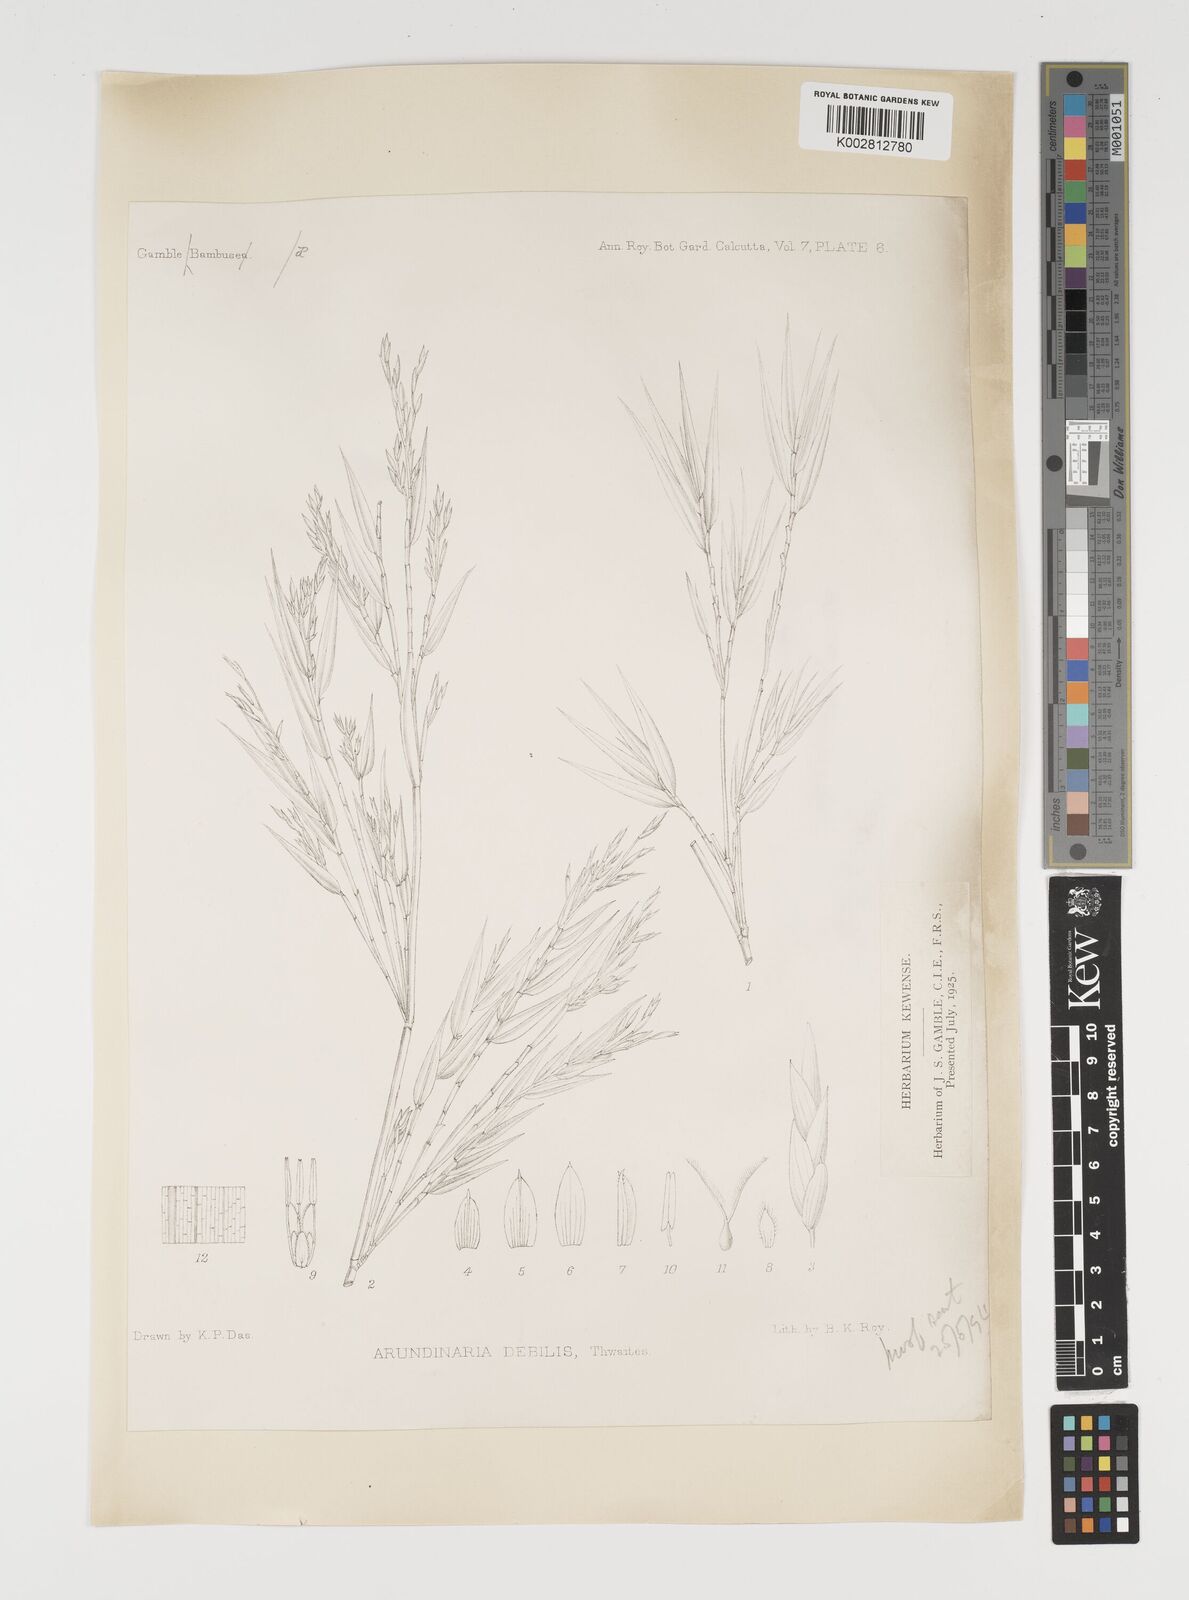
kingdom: Plantae
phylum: Tracheophyta
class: Liliopsida
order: Poales
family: Poaceae
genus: Kuruna
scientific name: Kuruna debilis
